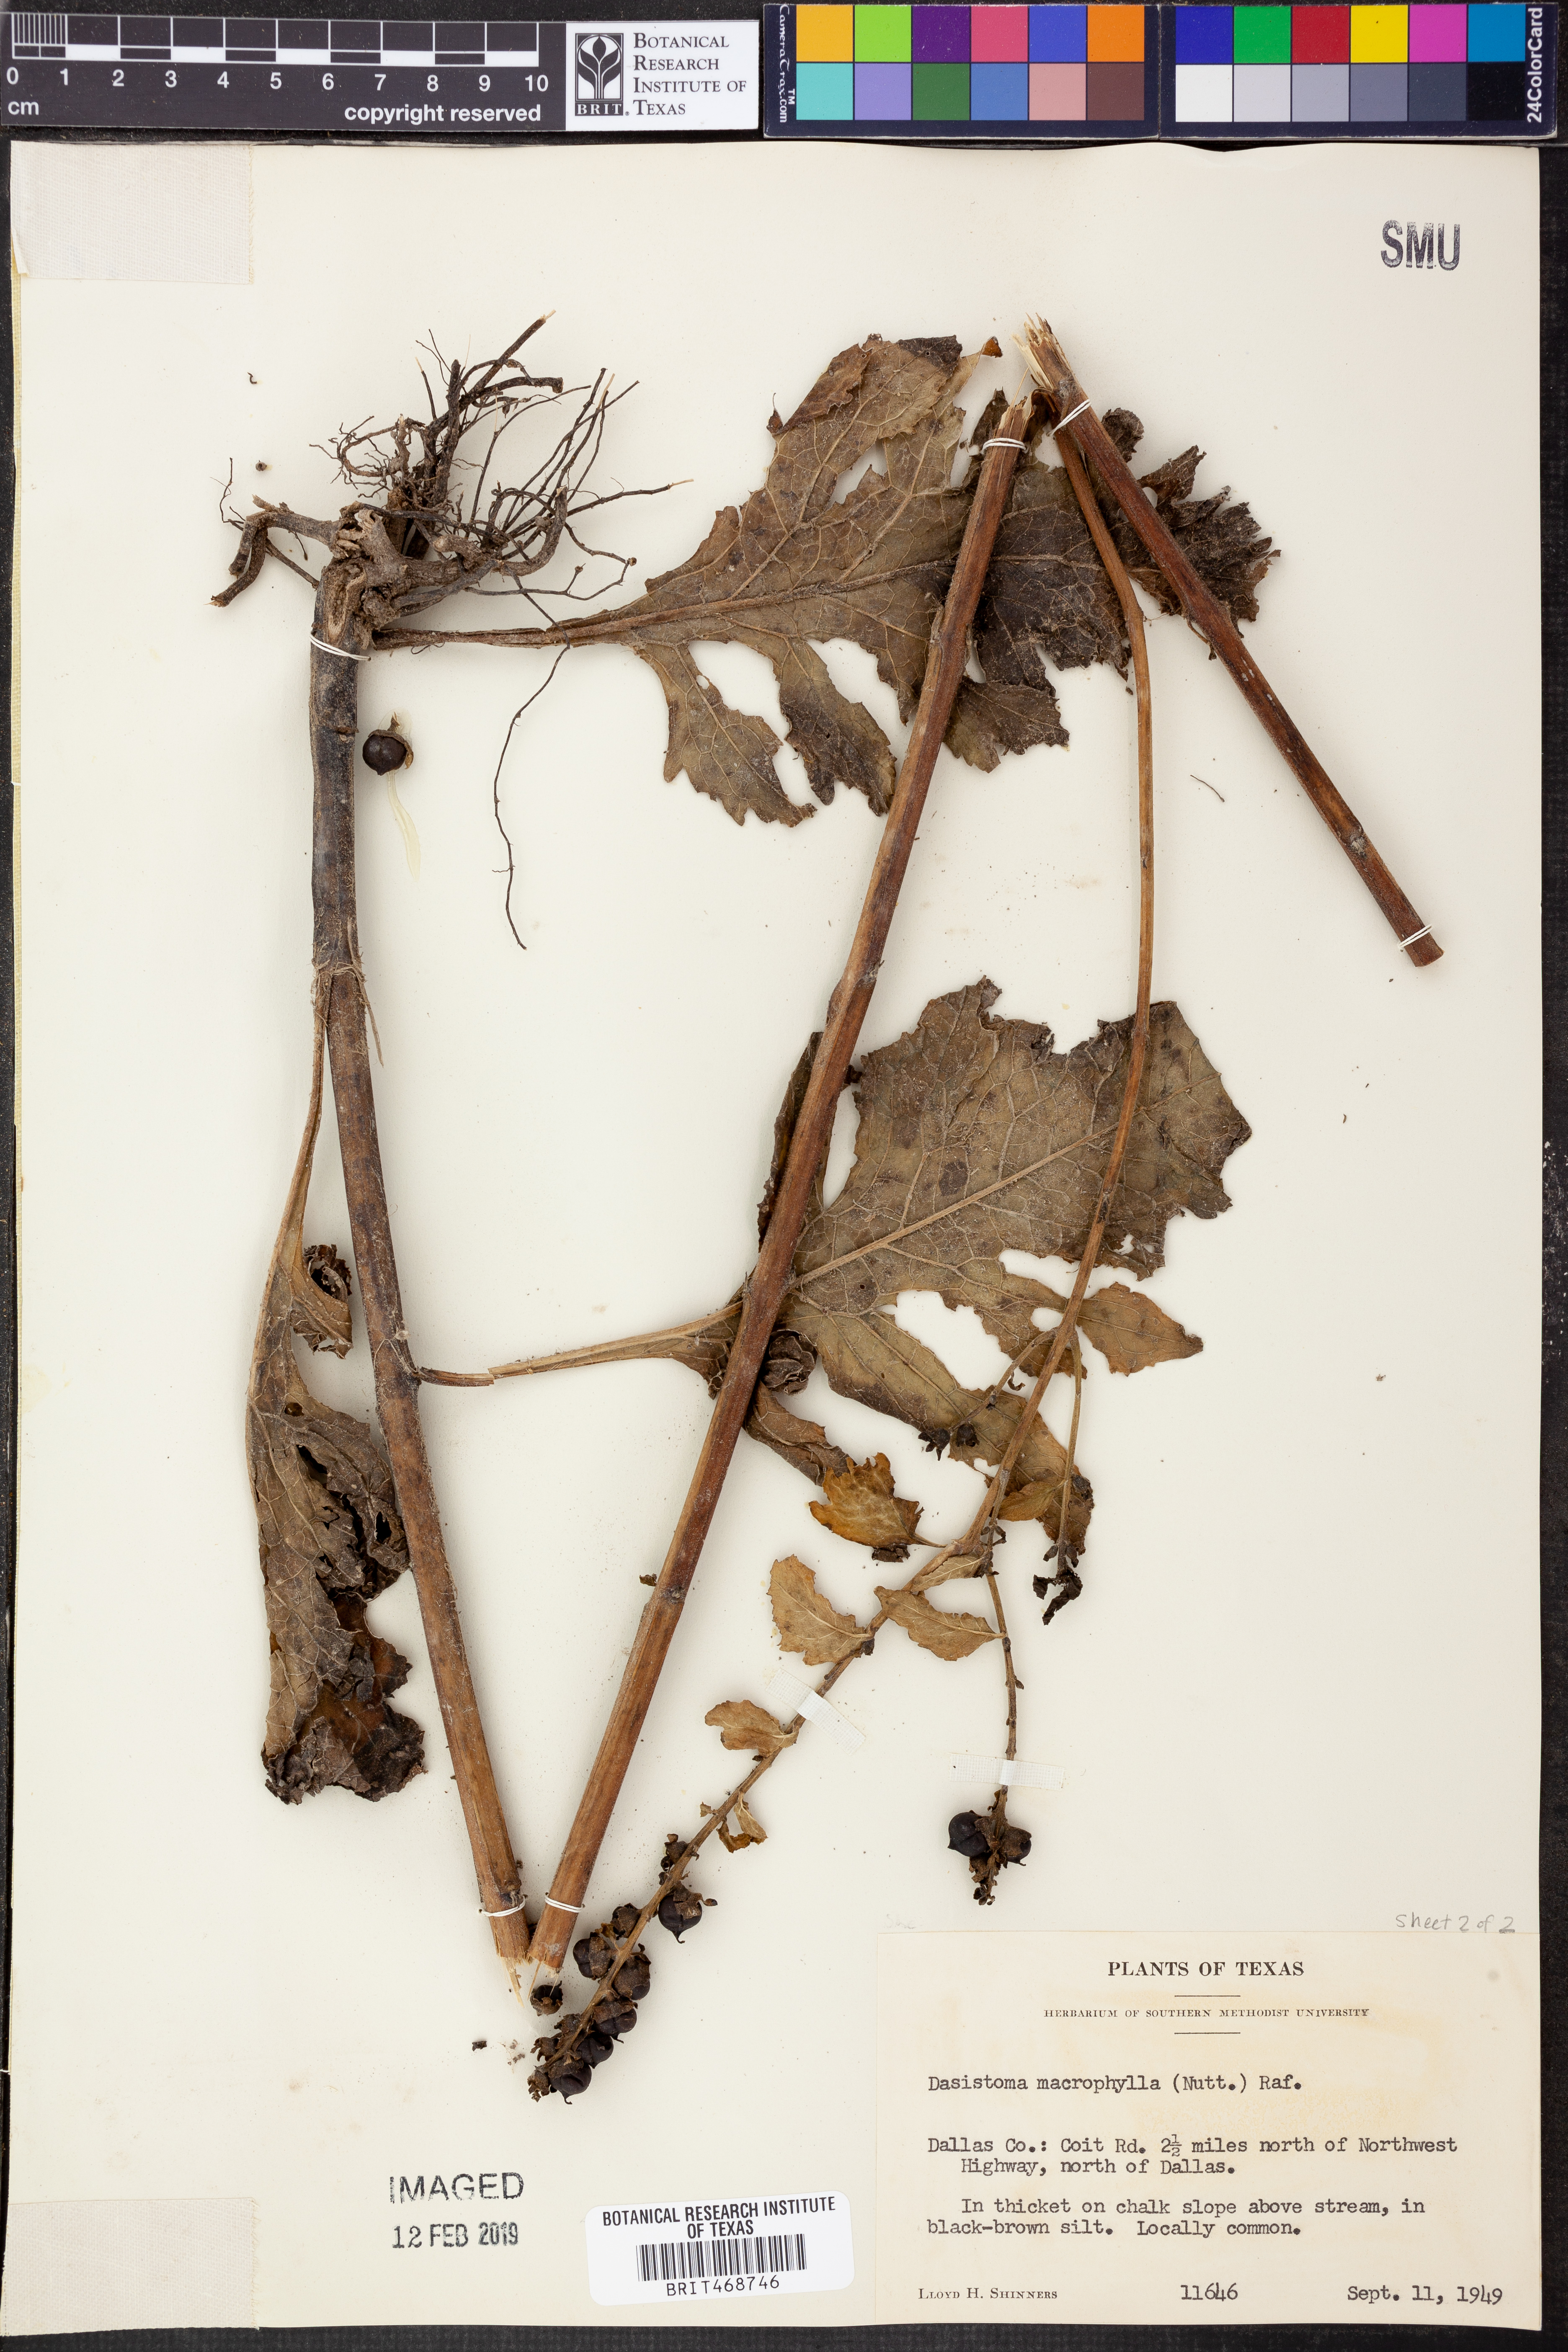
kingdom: Plantae
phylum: Tracheophyta
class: Magnoliopsida
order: Lamiales
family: Orobanchaceae
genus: Dasistoma
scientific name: Dasistoma macrophyllum
